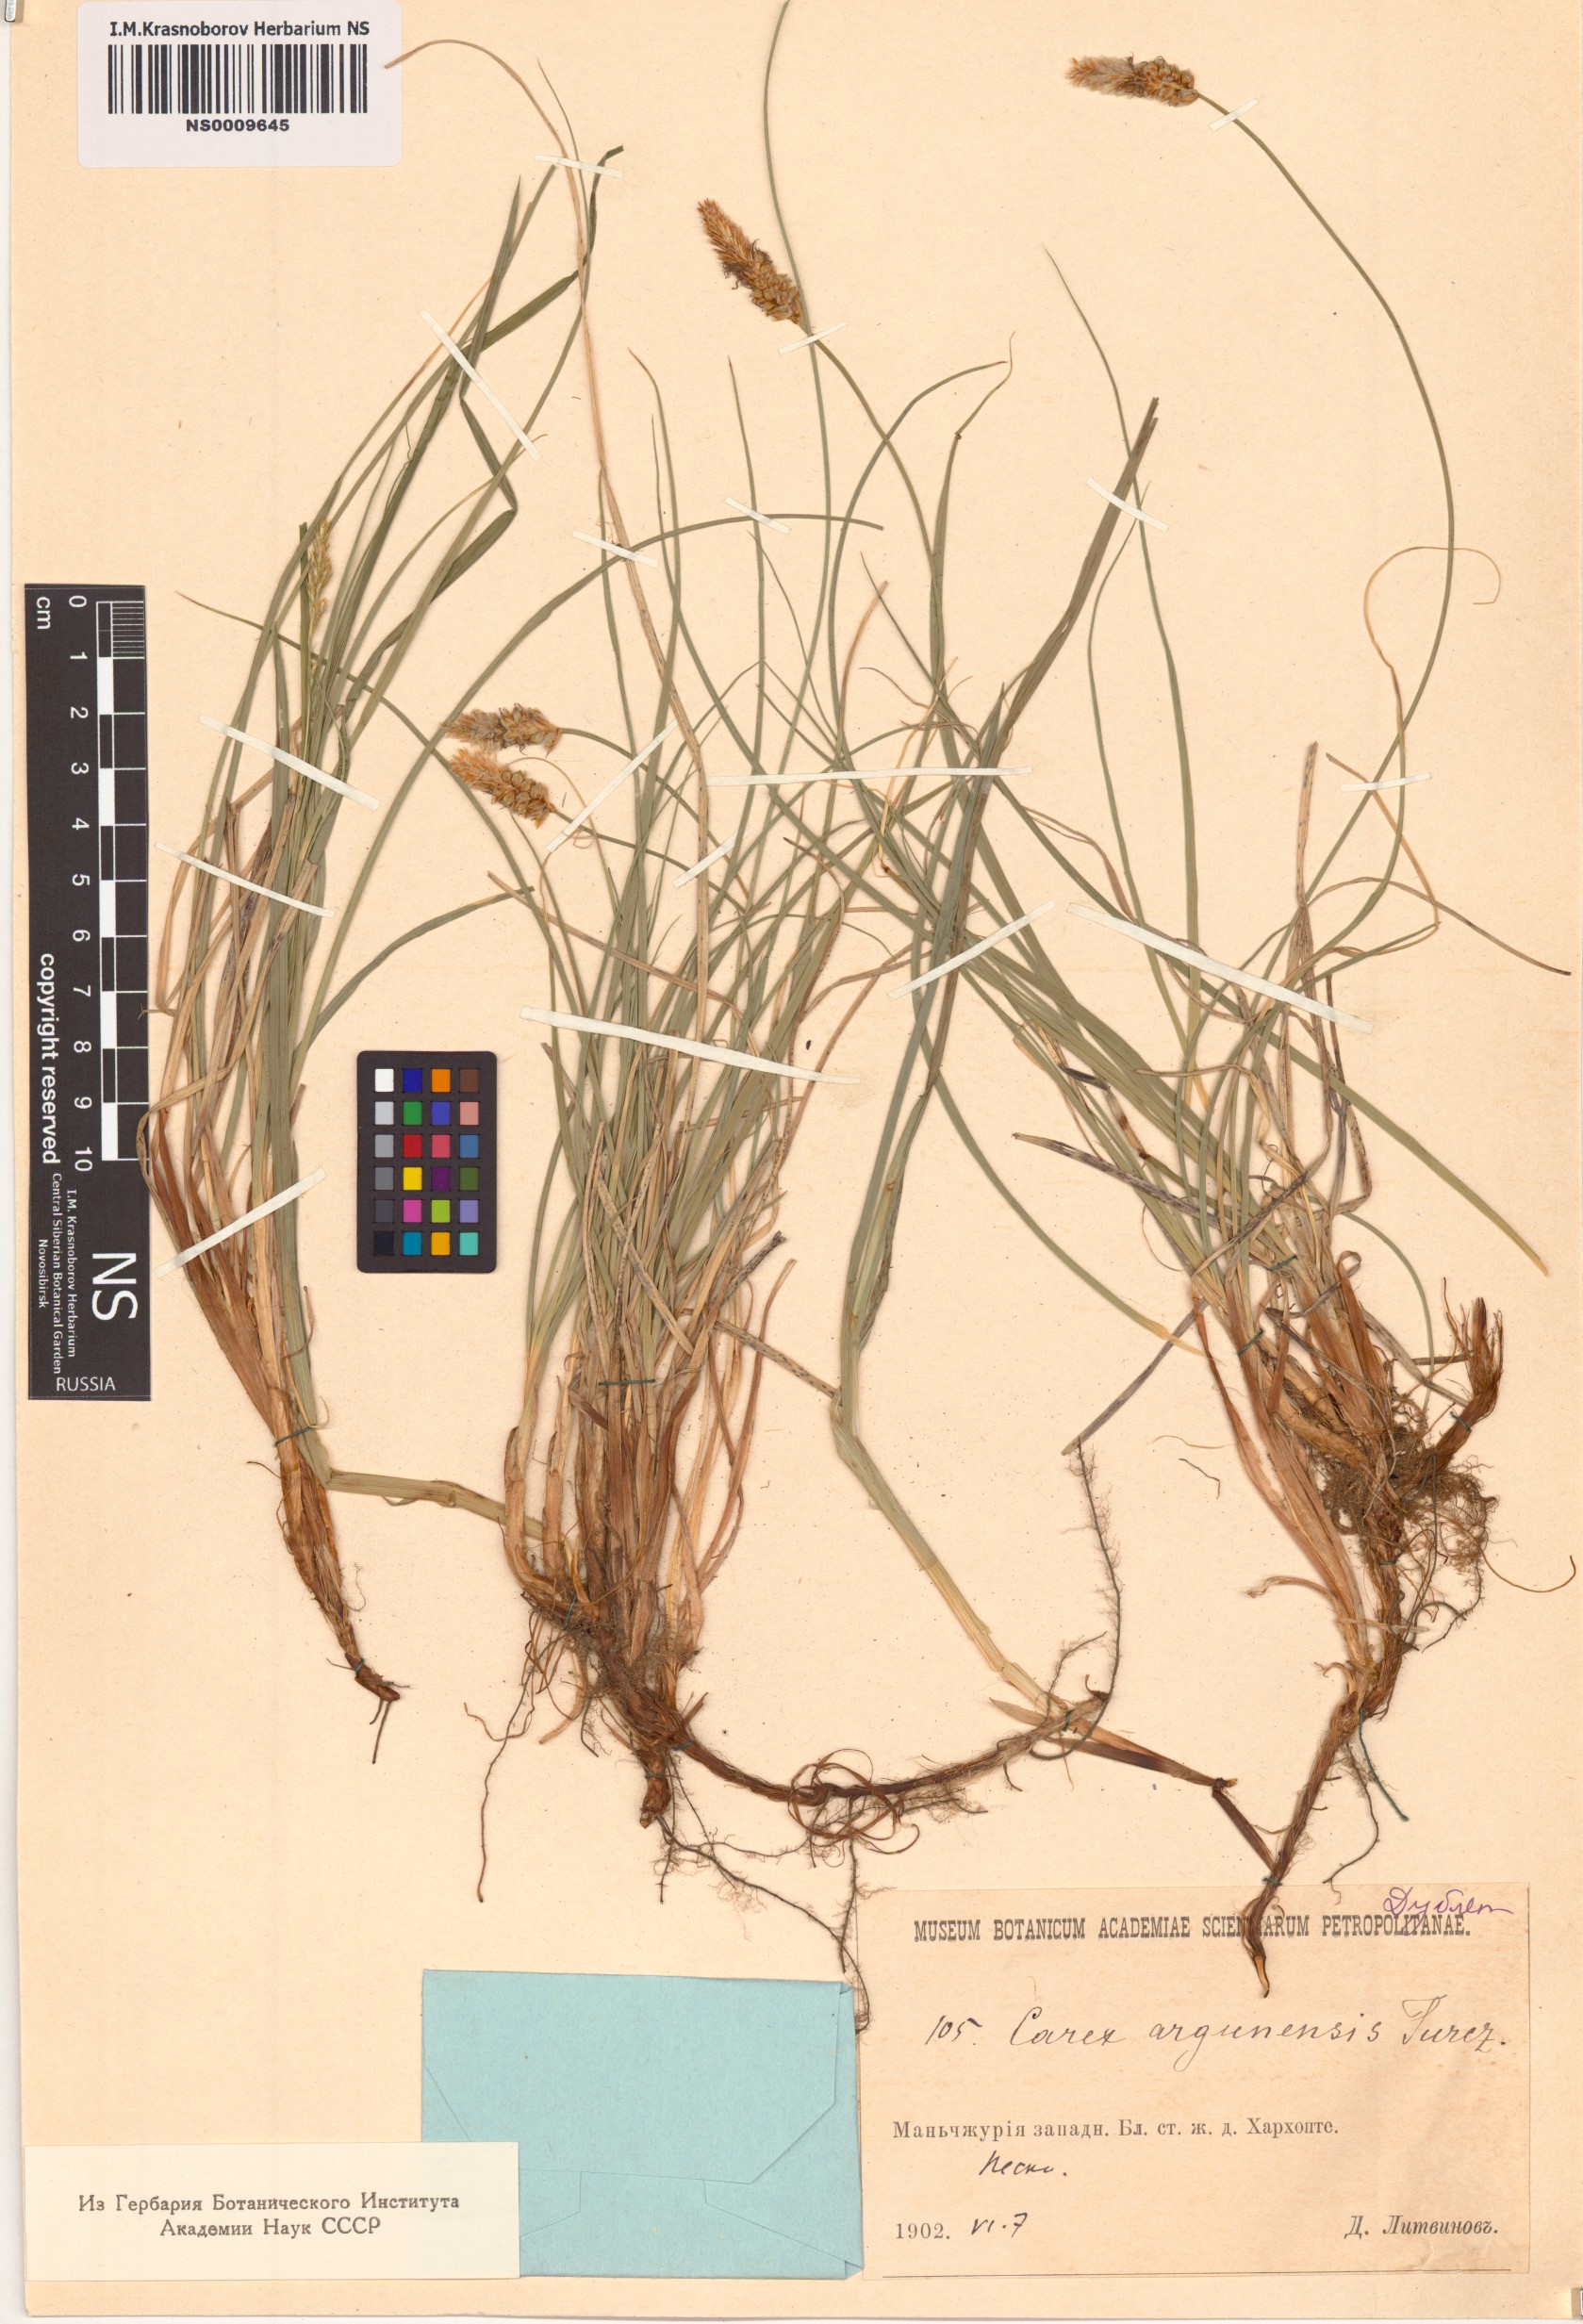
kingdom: Plantae
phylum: Tracheophyta
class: Liliopsida
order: Poales
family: Cyperaceae
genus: Carex
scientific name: Carex argunensis
